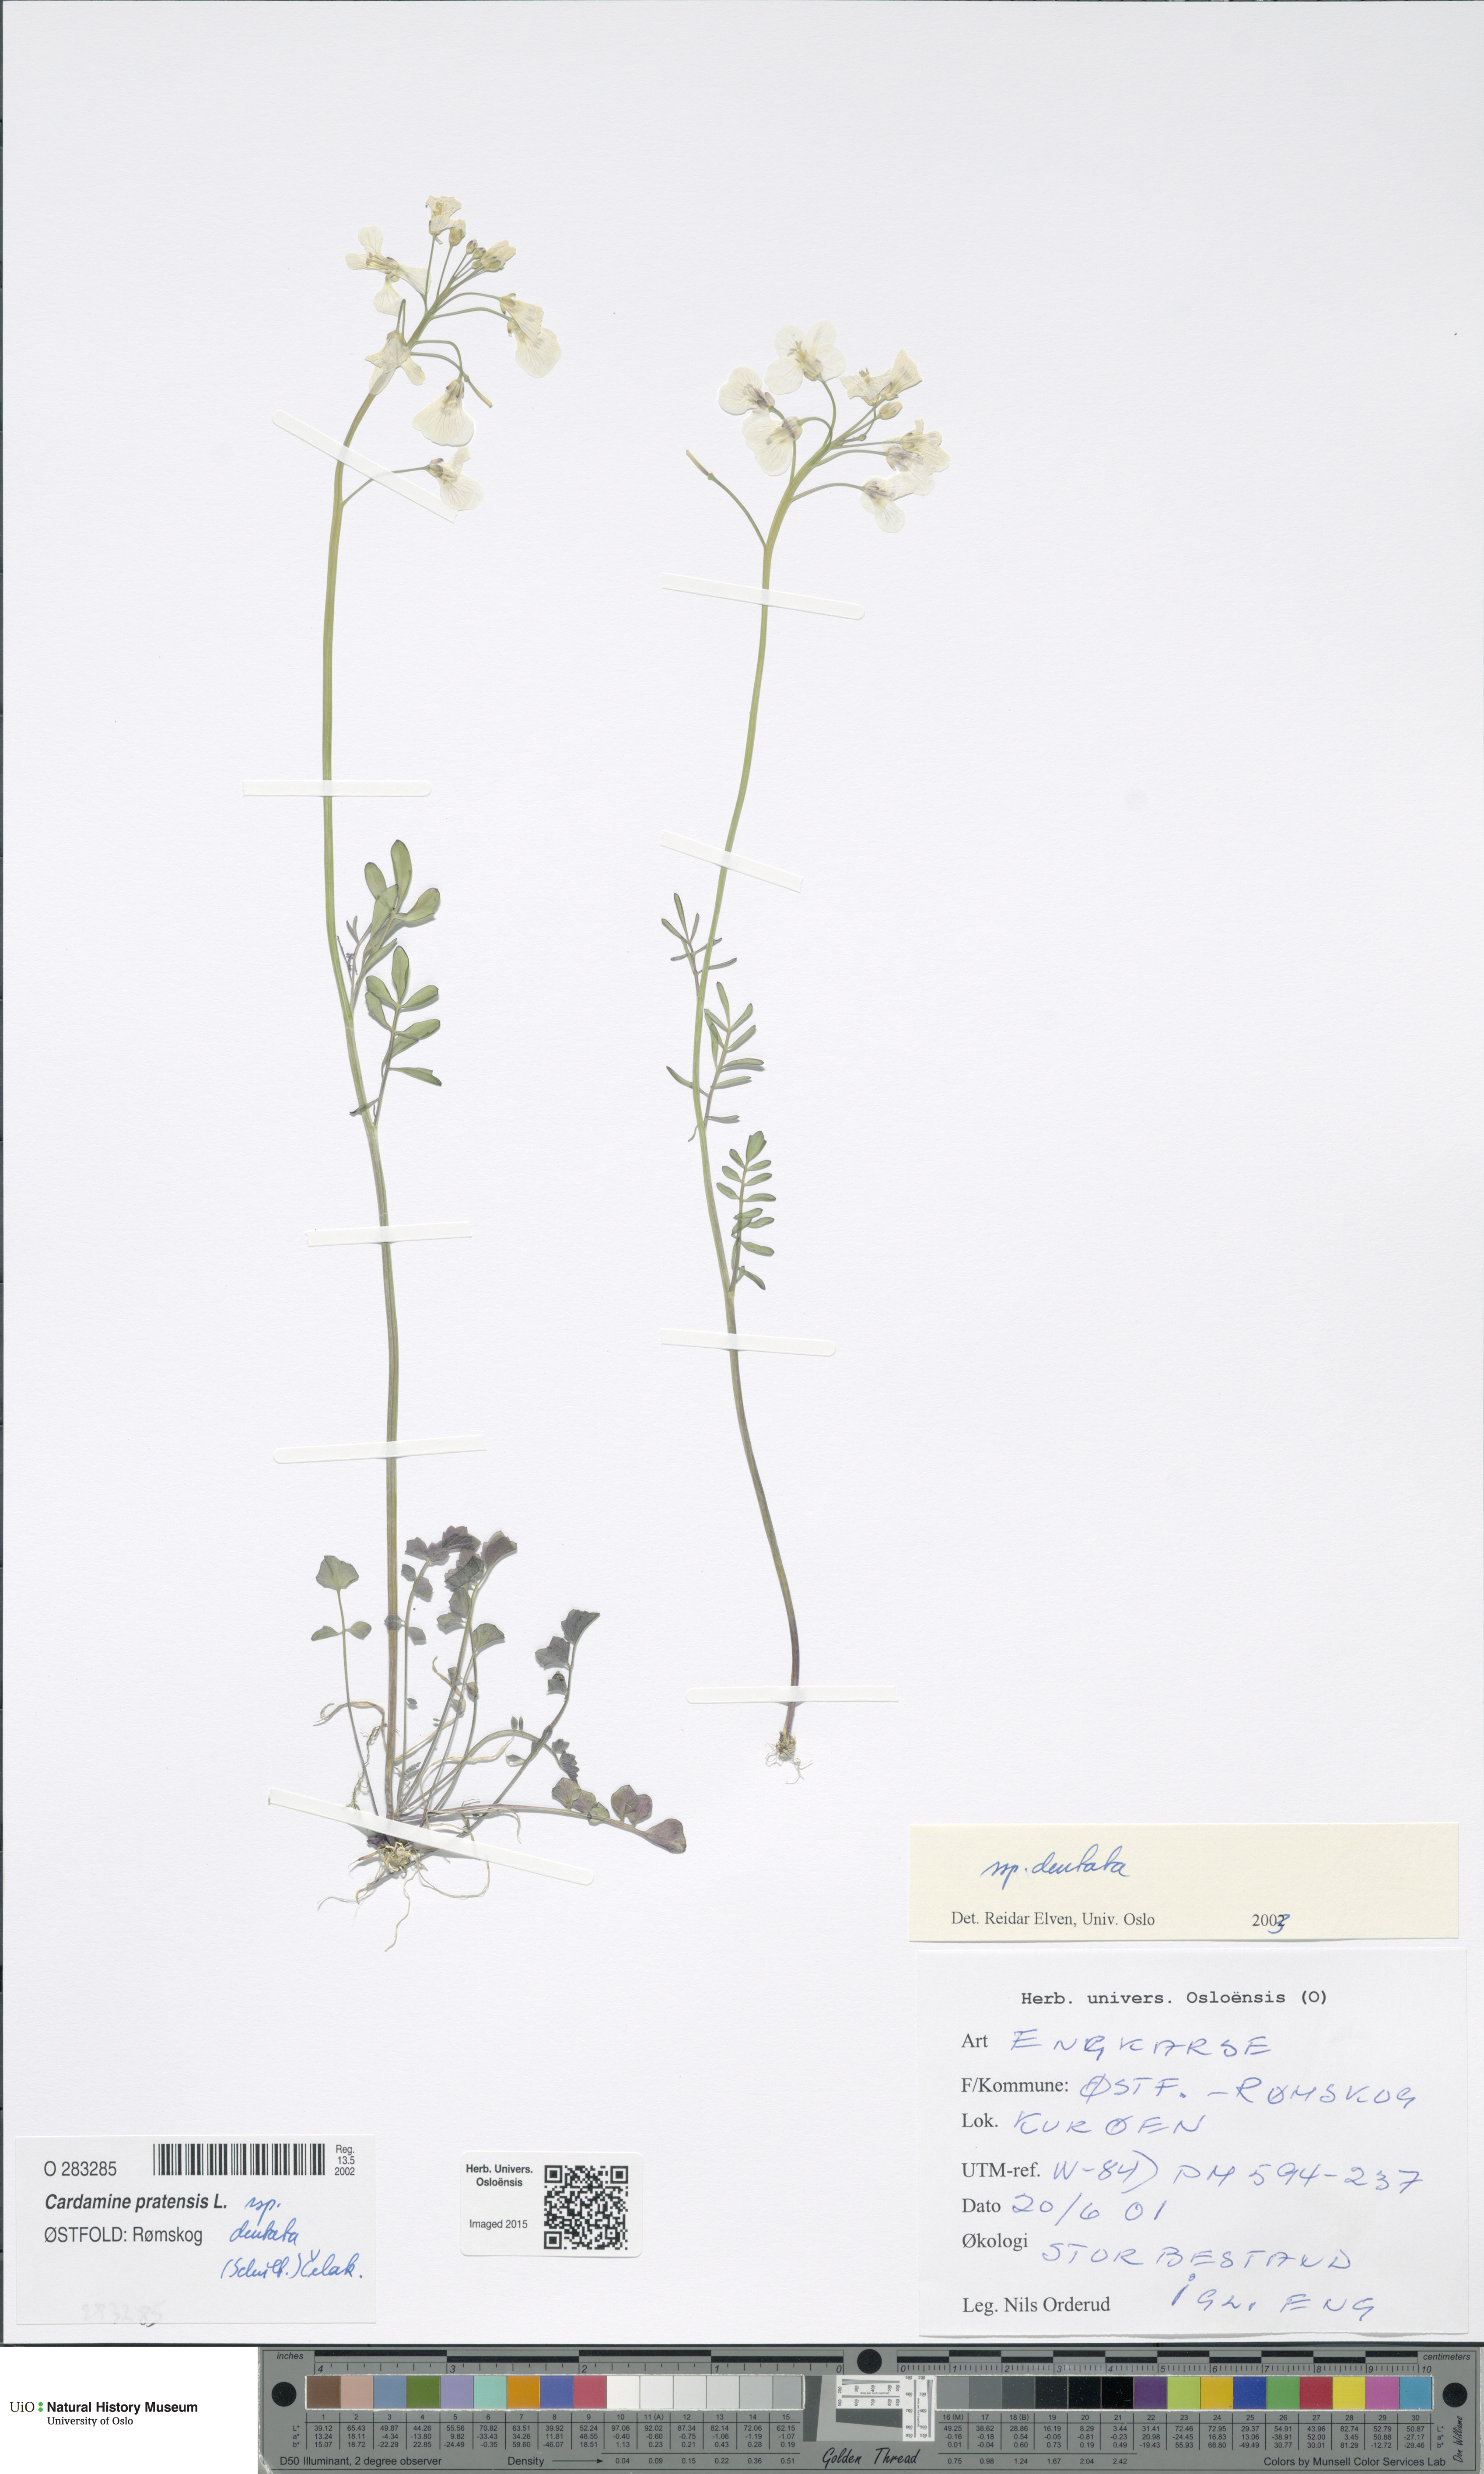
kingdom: Plantae
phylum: Tracheophyta
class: Magnoliopsida
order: Brassicales
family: Brassicaceae
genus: Cardamine
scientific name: Cardamine dentata
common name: Toothed bittercress
